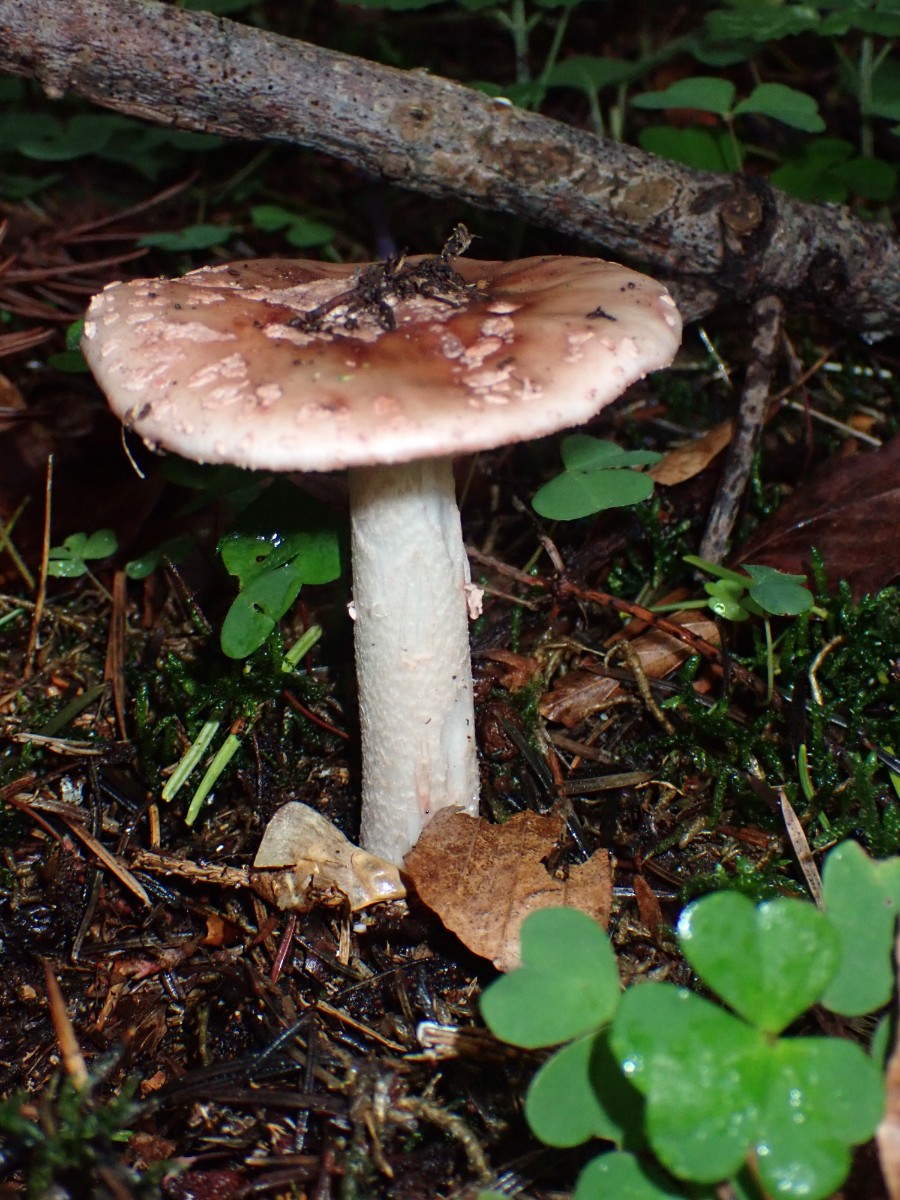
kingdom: Fungi
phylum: Basidiomycota
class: Agaricomycetes
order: Agaricales
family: Amanitaceae
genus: Amanita
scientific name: Amanita rubescens
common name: rødmende fluesvamp
